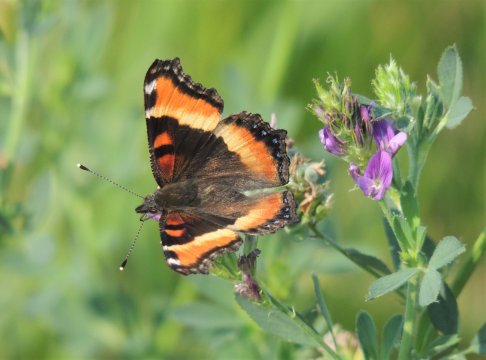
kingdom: Animalia
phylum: Arthropoda
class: Insecta
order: Lepidoptera
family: Nymphalidae
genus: Aglais
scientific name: Aglais milberti
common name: Milbert's Tortoiseshell
